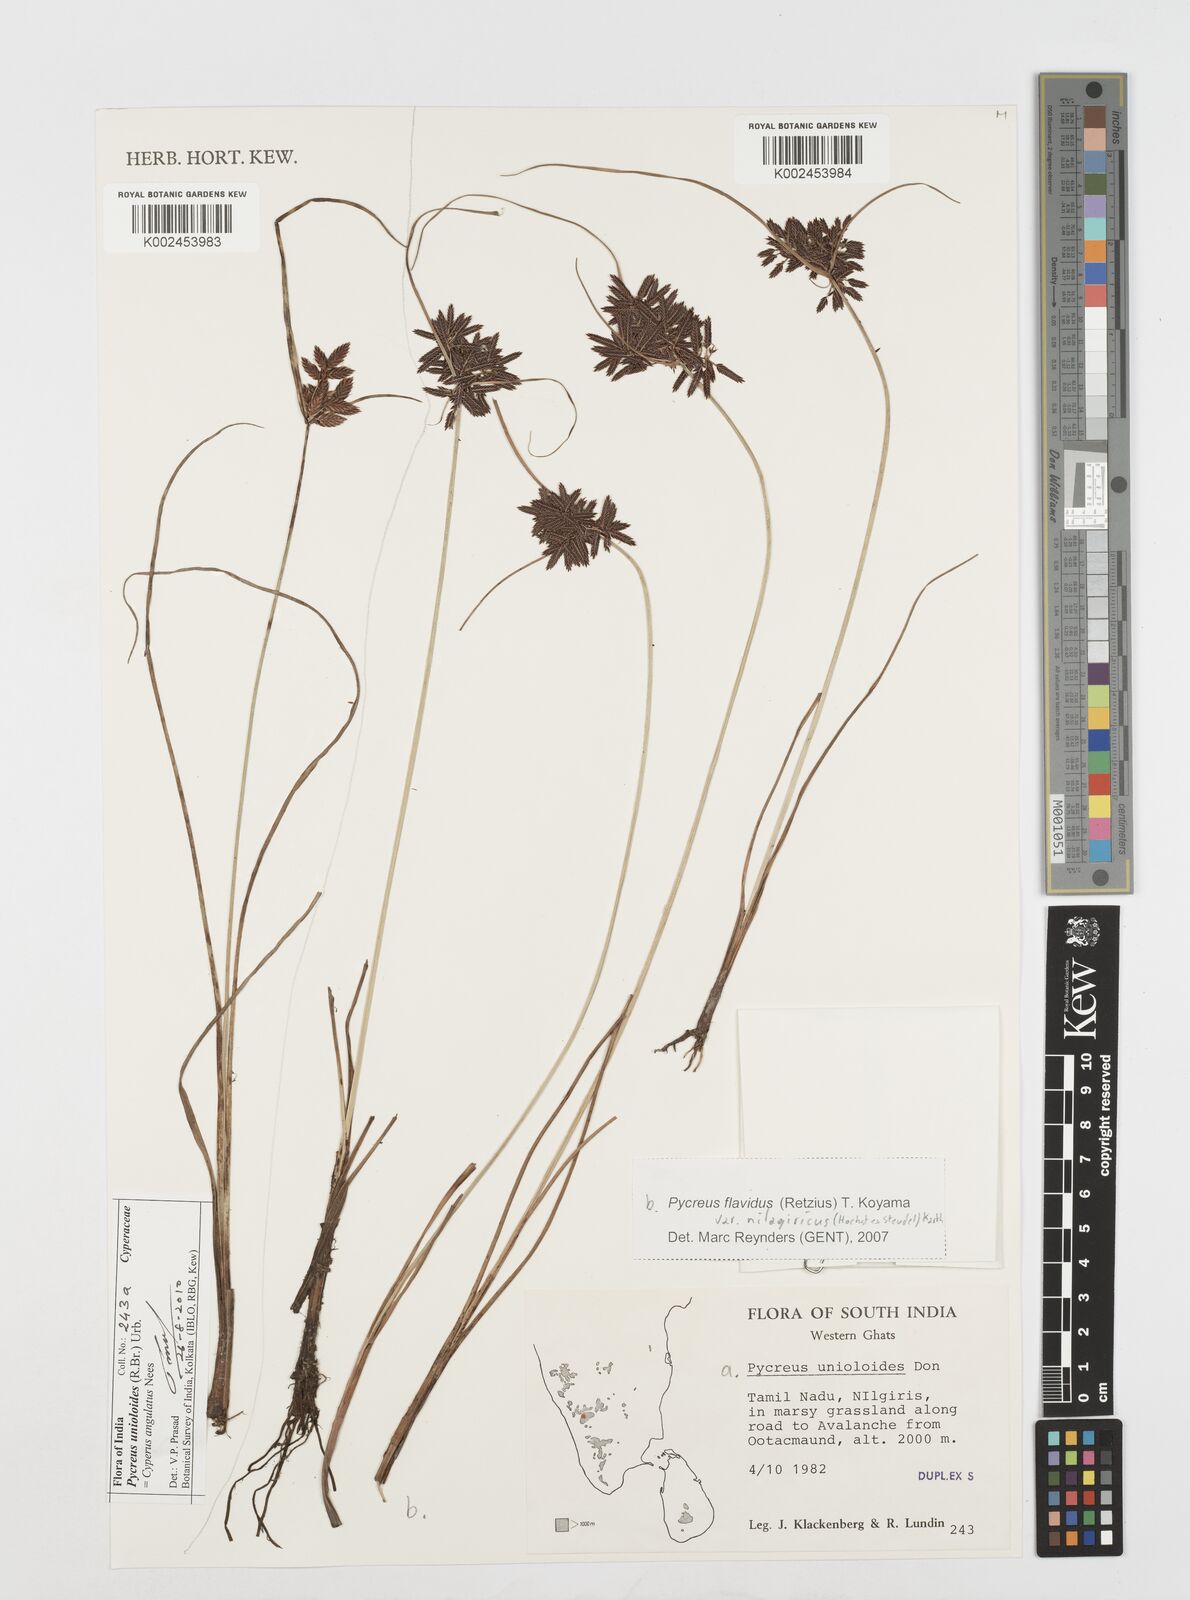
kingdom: Plantae
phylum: Tracheophyta
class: Liliopsida
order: Poales
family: Cyperaceae
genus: Cyperus
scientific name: Cyperus unioloides
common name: Uniola flatsedge
